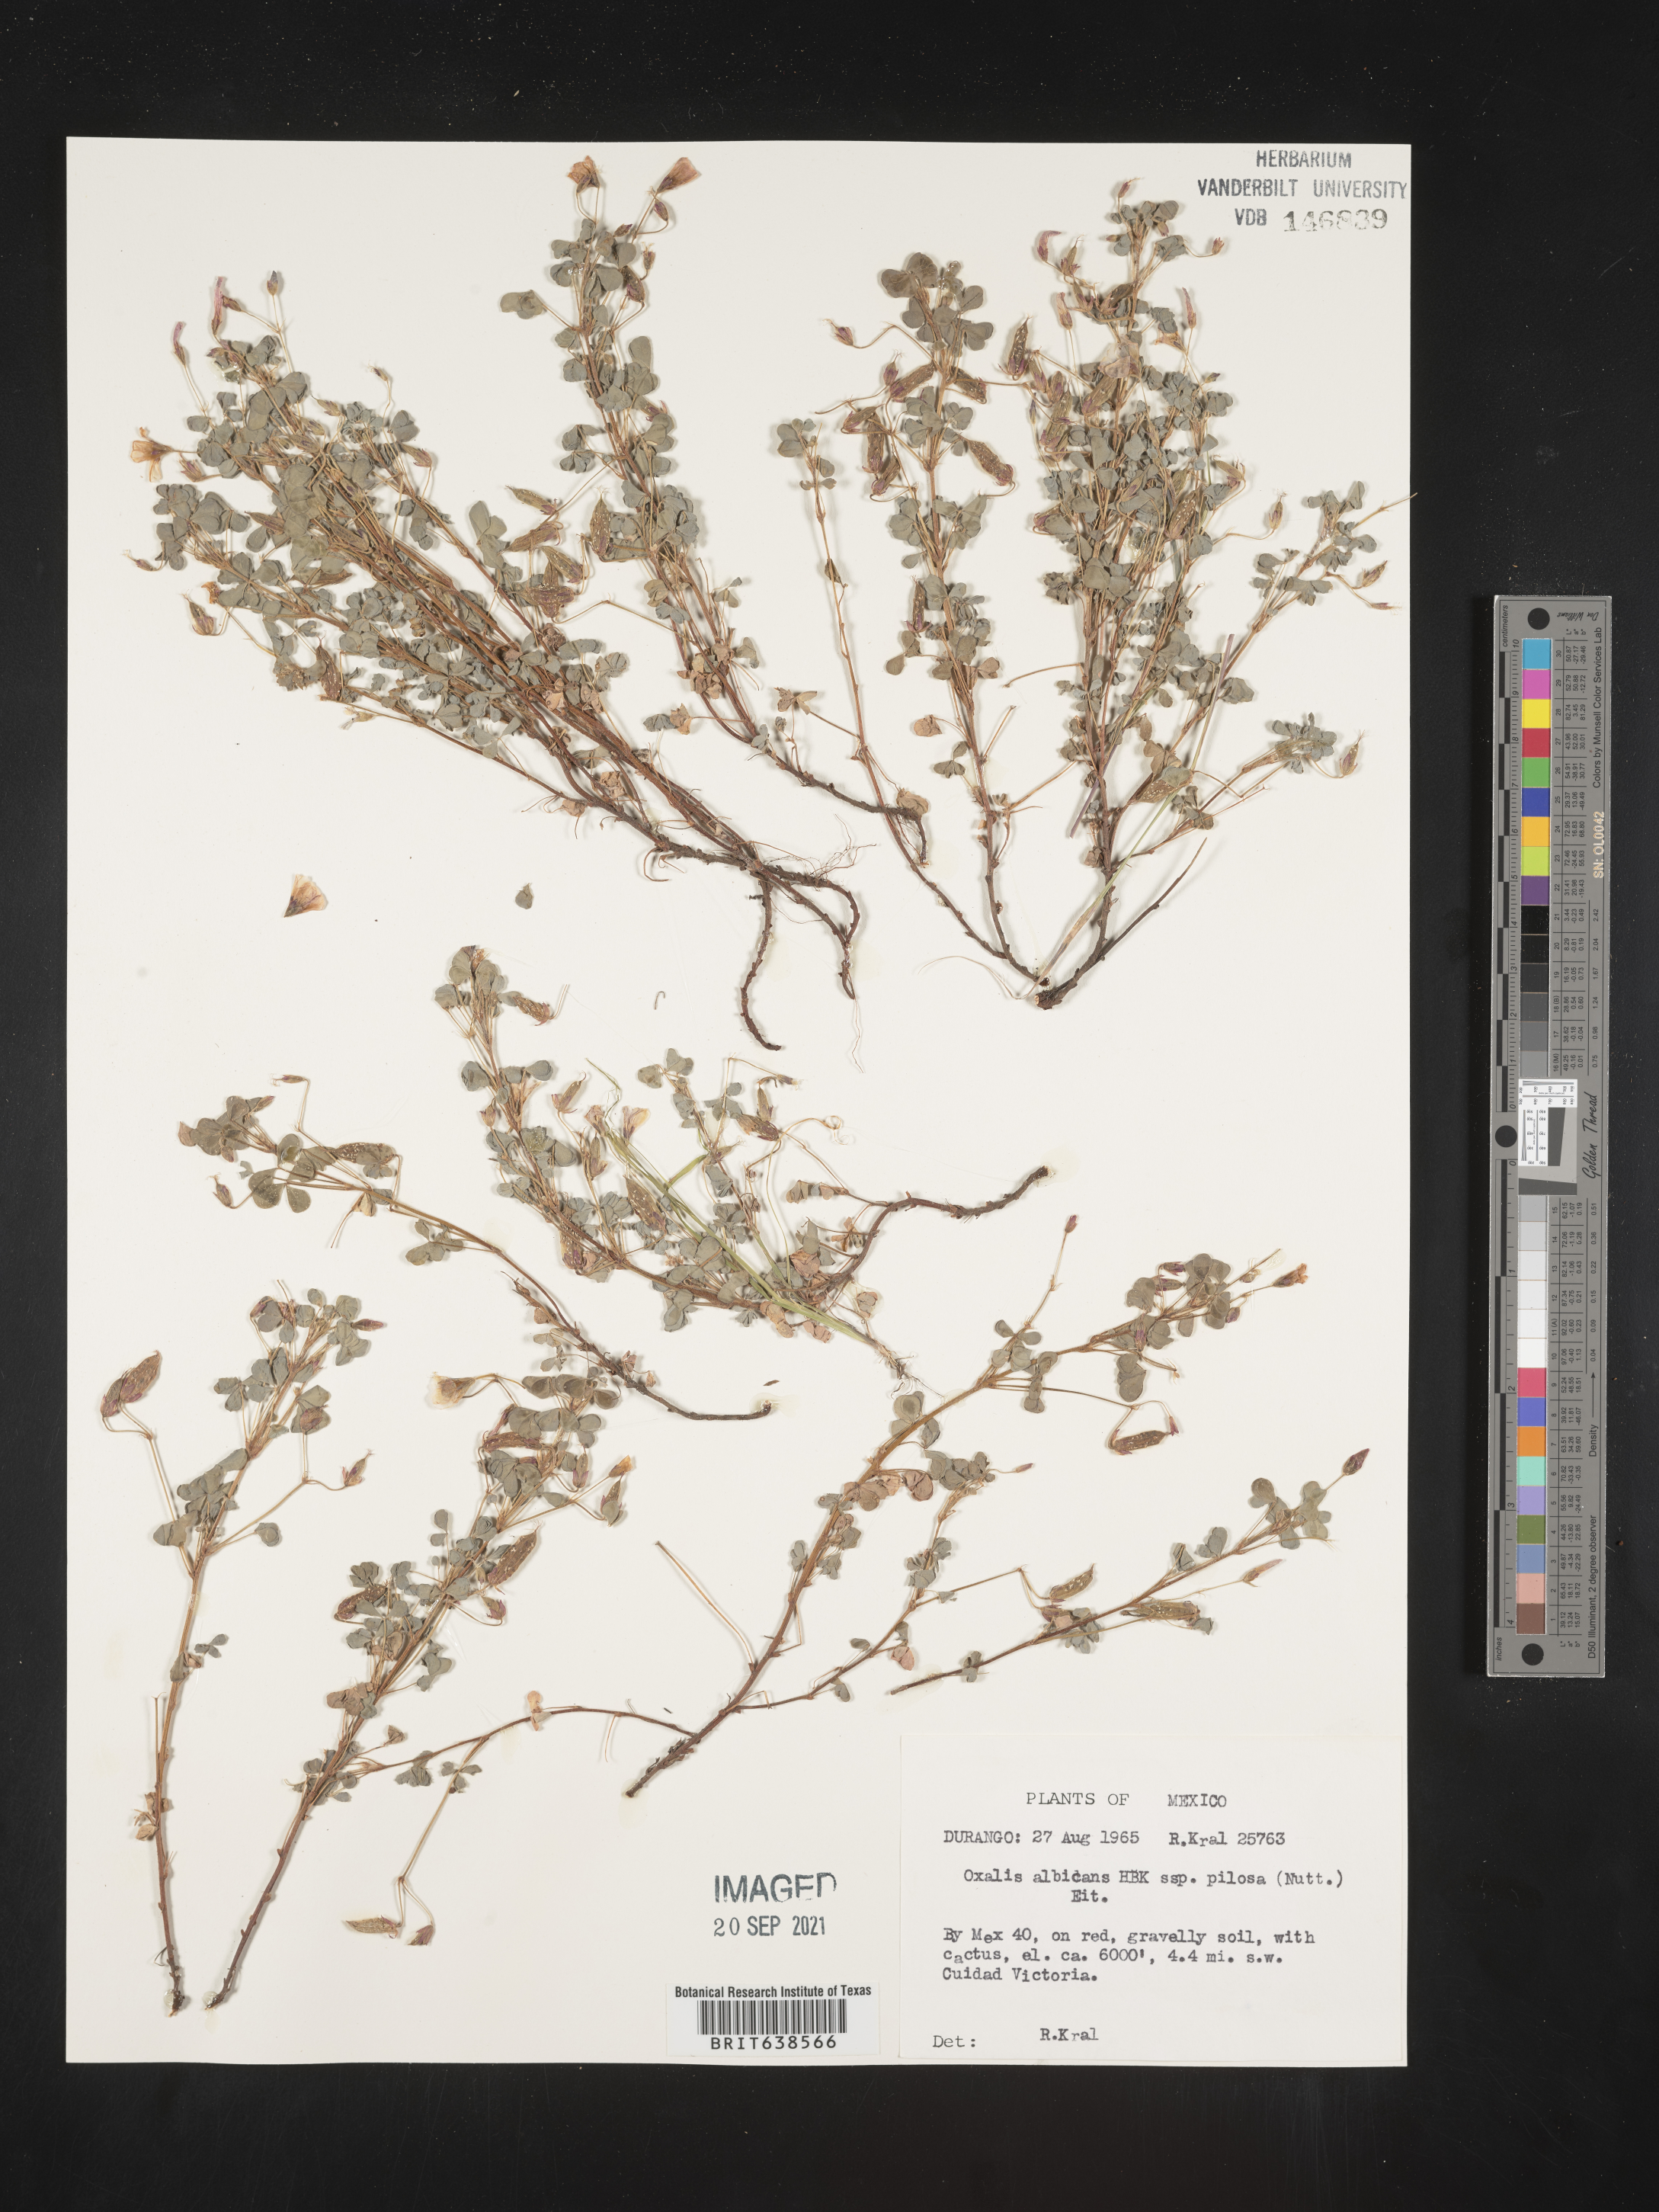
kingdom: Plantae
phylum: Tracheophyta
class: Magnoliopsida
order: Oxalidales
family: Oxalidaceae
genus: Oxalis
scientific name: Oxalis
